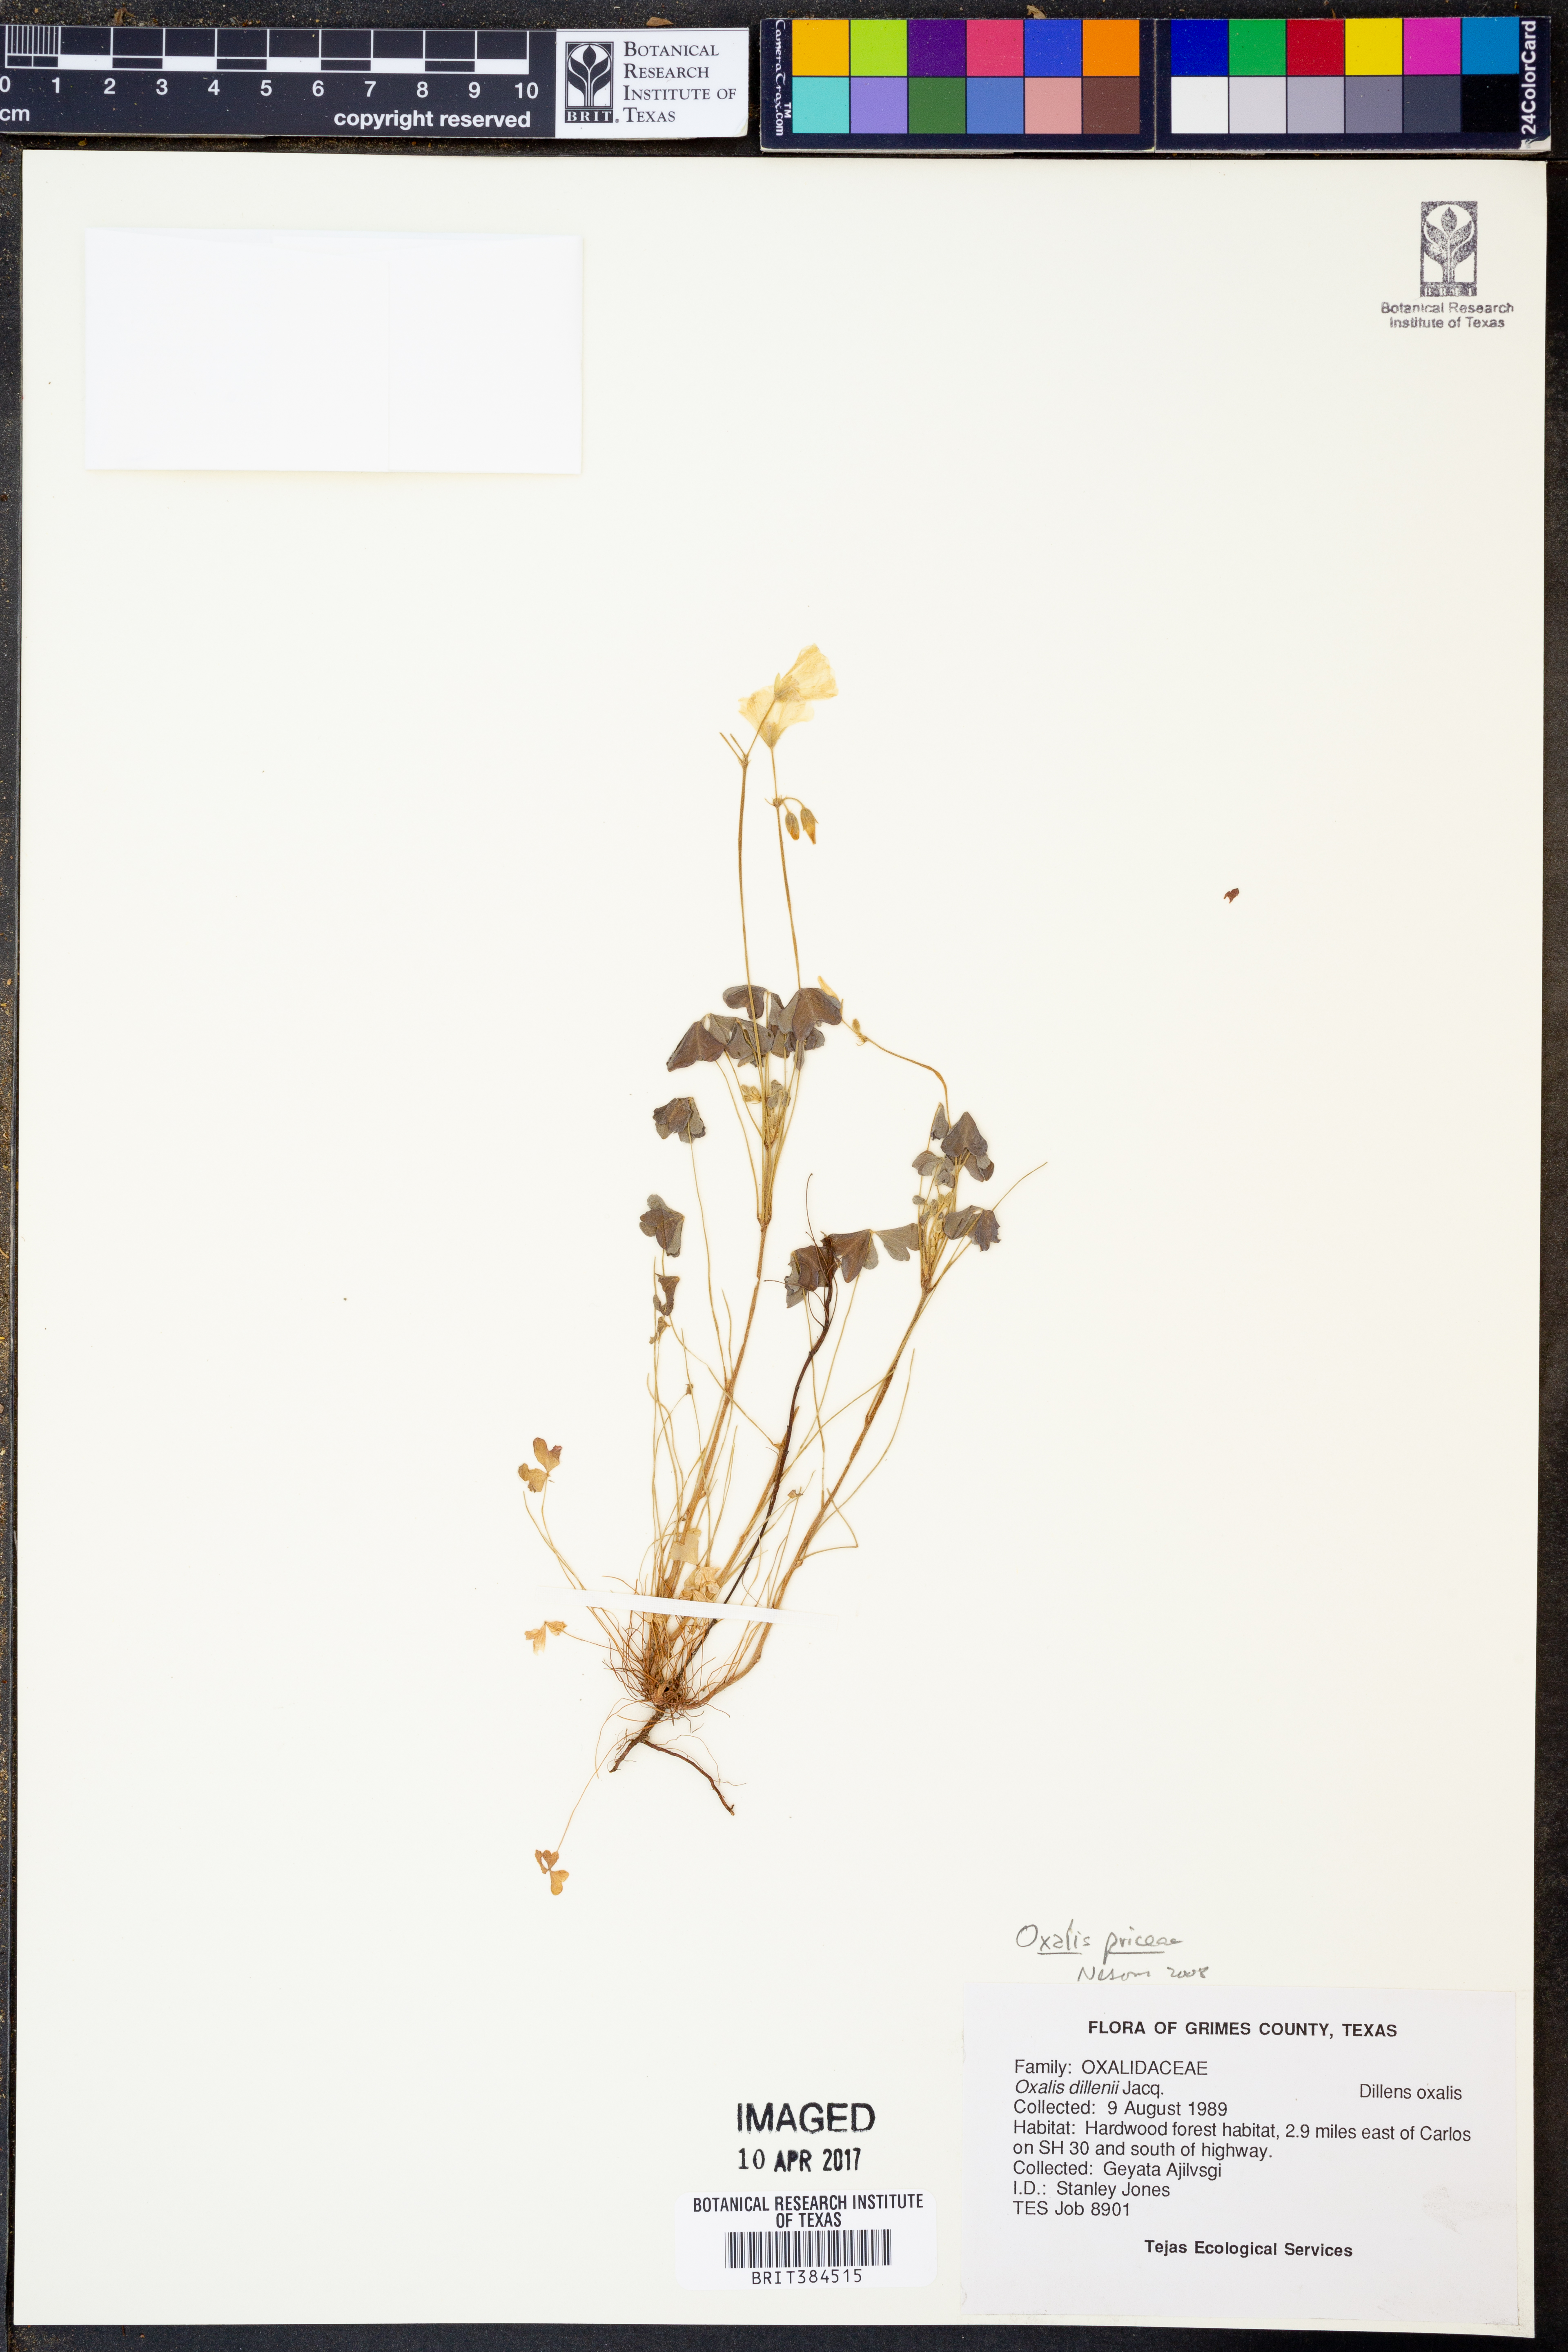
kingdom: Plantae
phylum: Tracheophyta
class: Magnoliopsida
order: Oxalidales
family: Oxalidaceae
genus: Oxalis
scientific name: Oxalis macrantha
